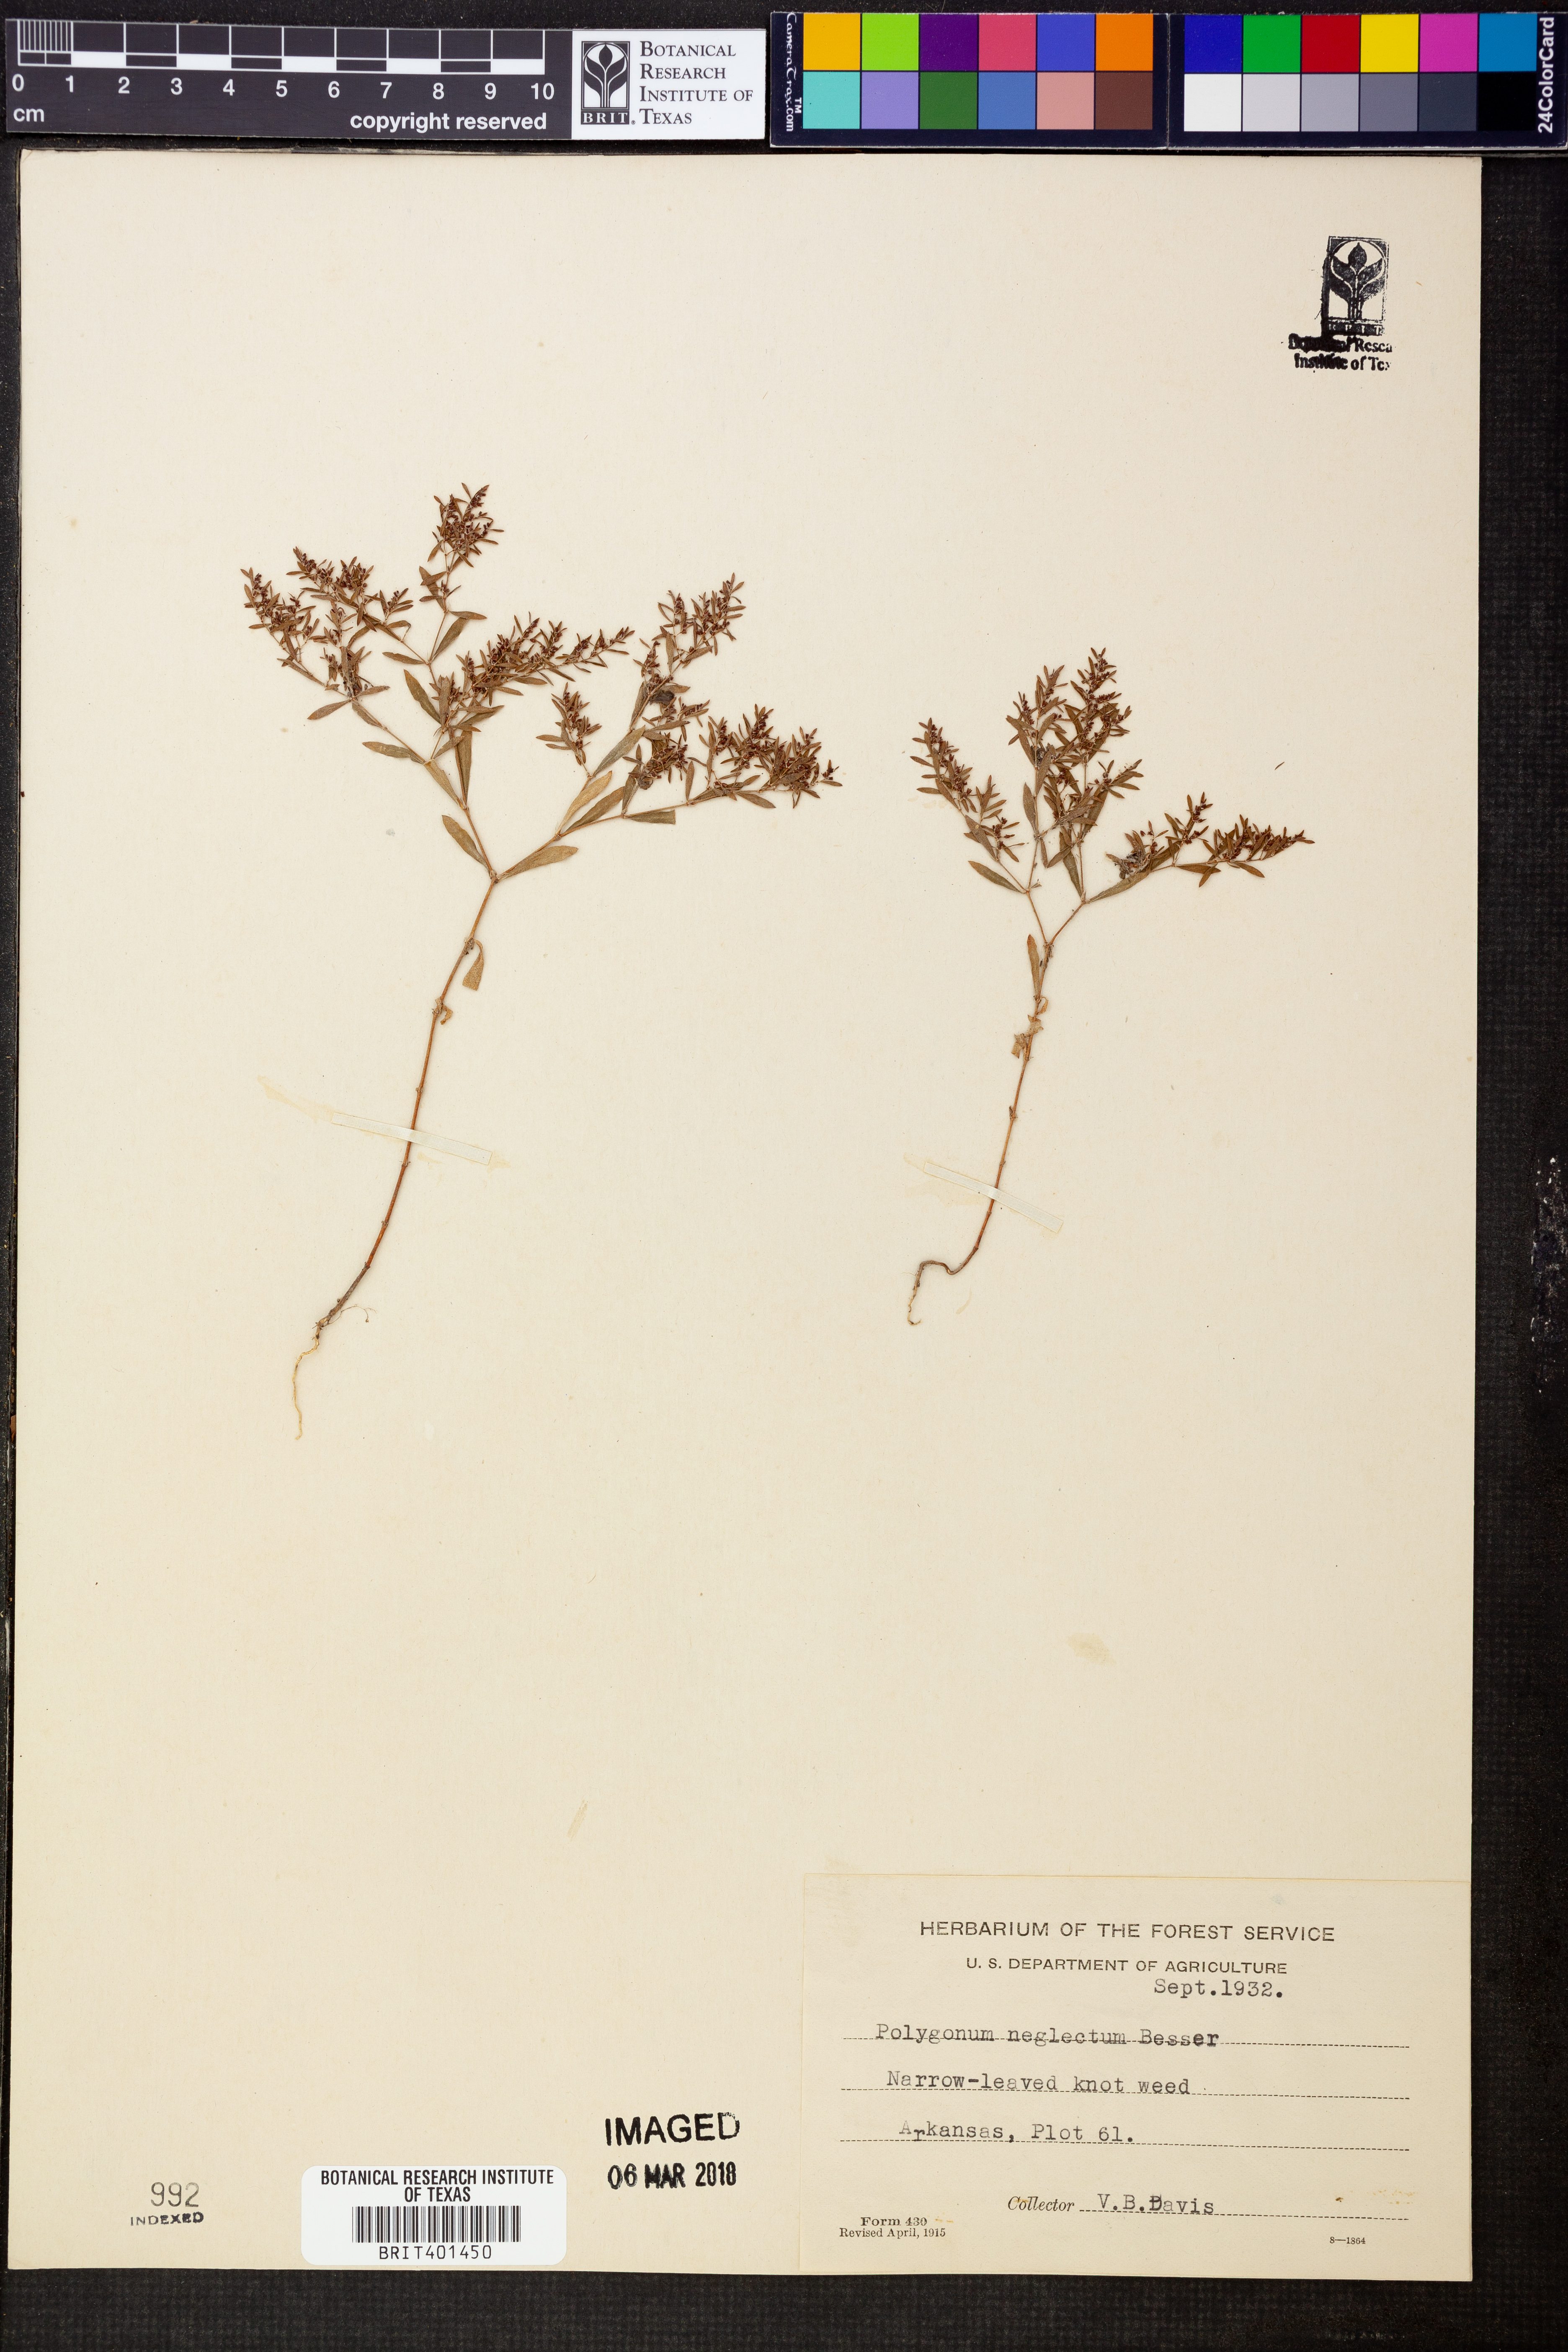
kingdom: Plantae
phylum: Tracheophyta
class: Magnoliopsida
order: Caryophyllales
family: Polygonaceae
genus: Polygonum
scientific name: Polygonum aviculare
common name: Prostrate knotweed
